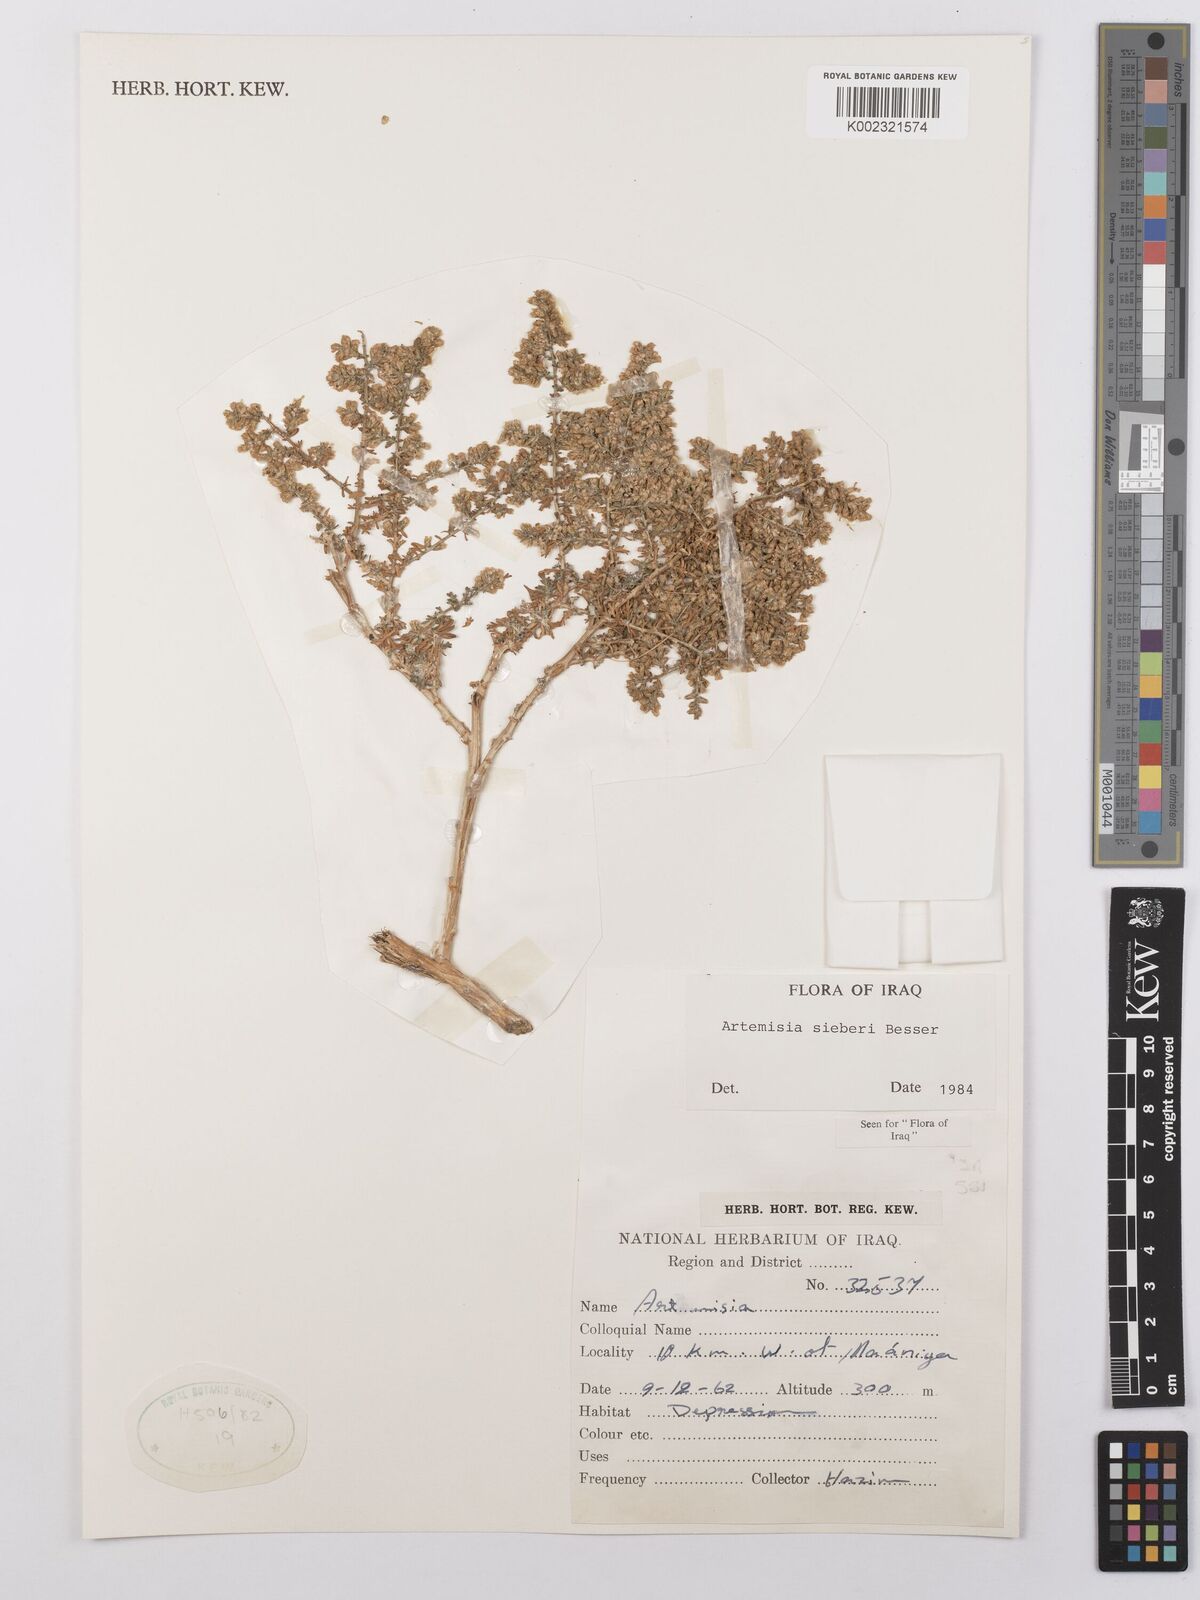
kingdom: Plantae
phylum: Tracheophyta
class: Magnoliopsida
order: Asterales
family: Asteraceae
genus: Artemisia
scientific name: Artemisia sieberi
